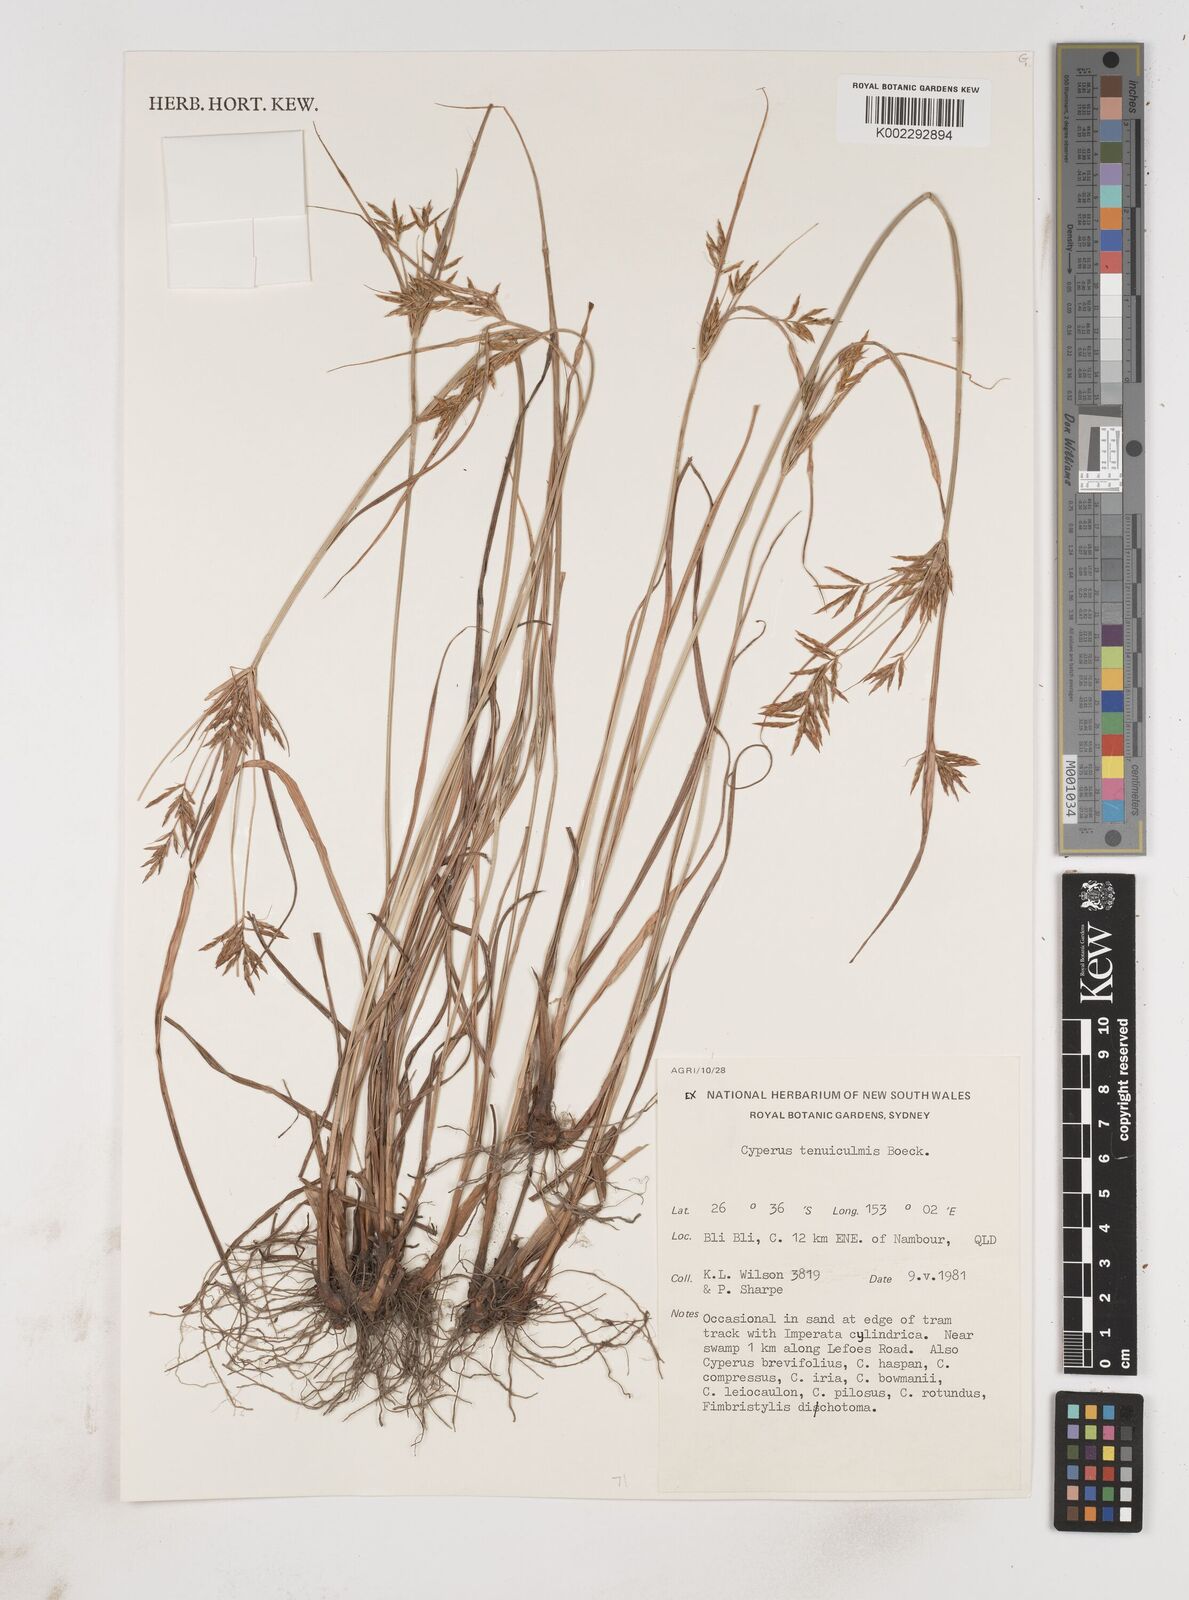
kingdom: Plantae
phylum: Tracheophyta
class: Liliopsida
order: Poales
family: Cyperaceae
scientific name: Cyperaceae
